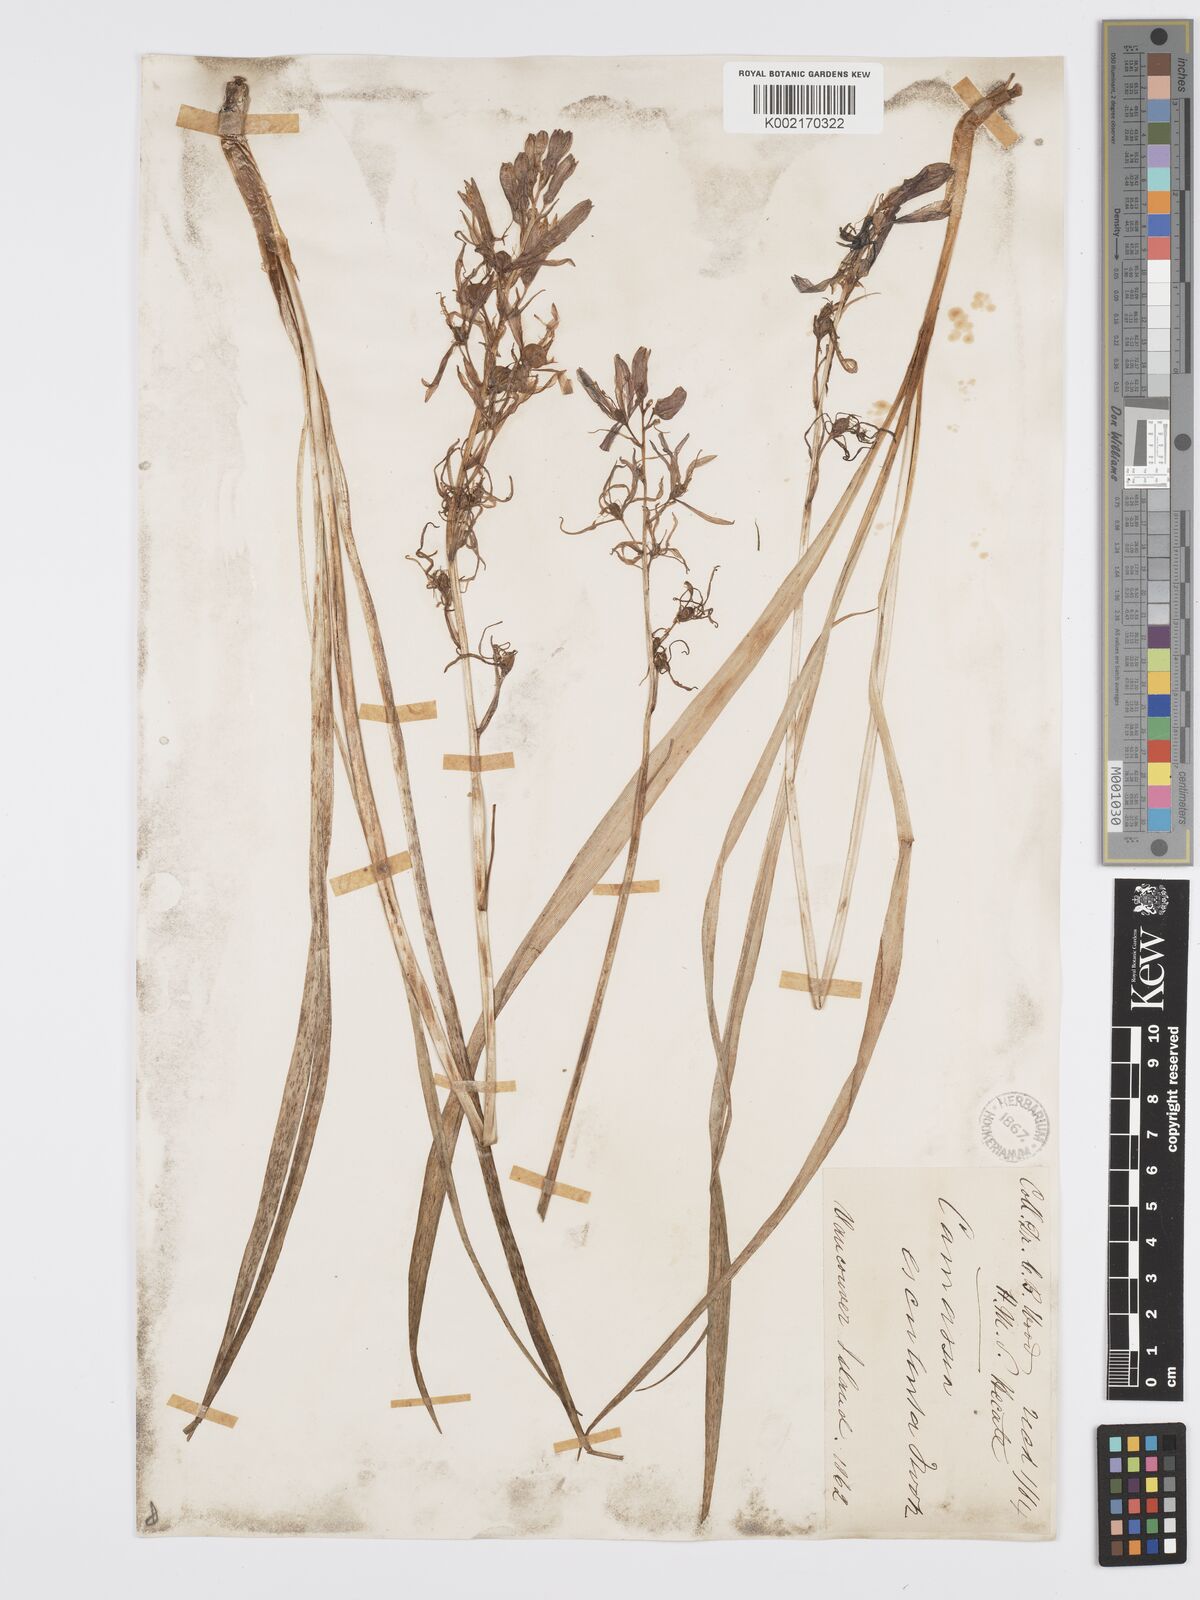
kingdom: Plantae
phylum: Tracheophyta
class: Liliopsida
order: Asparagales
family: Asparagaceae
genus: Camassia
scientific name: Camassia quamash
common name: Common camas
